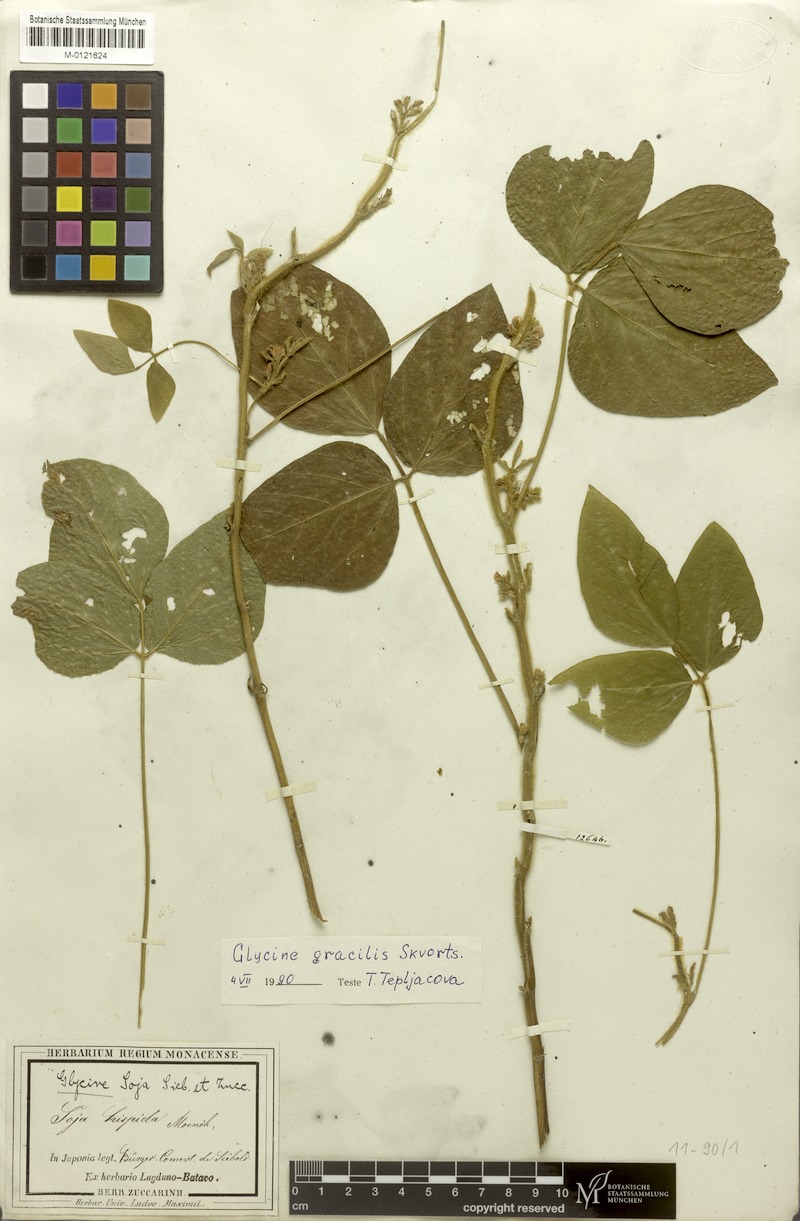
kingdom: Plantae
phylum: Tracheophyta
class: Magnoliopsida
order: Fabales
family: Fabaceae
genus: Glycine
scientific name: Glycine max
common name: Soya-bean
